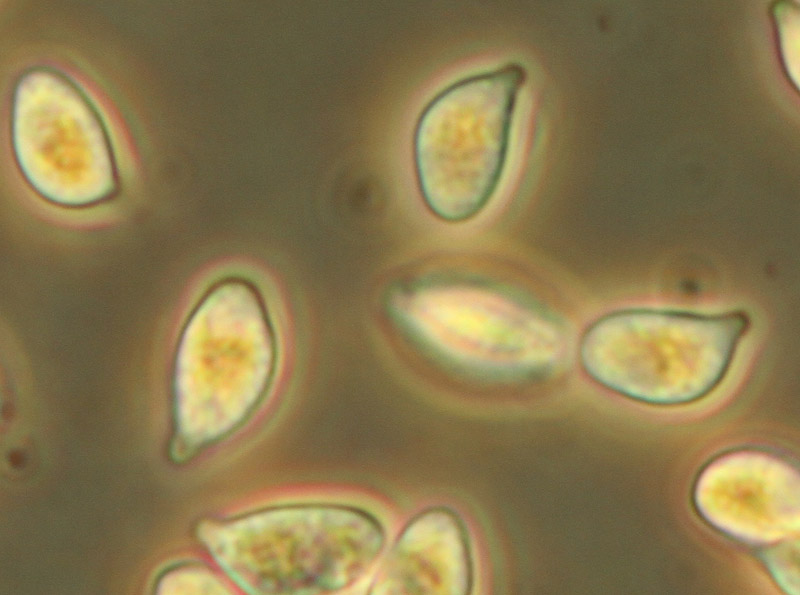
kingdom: Fungi
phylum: Basidiomycota
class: Agaricomycetes
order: Agaricales
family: Marasmiaceae
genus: Marasmius
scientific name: Marasmius oreades
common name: elledans-bruskhat
